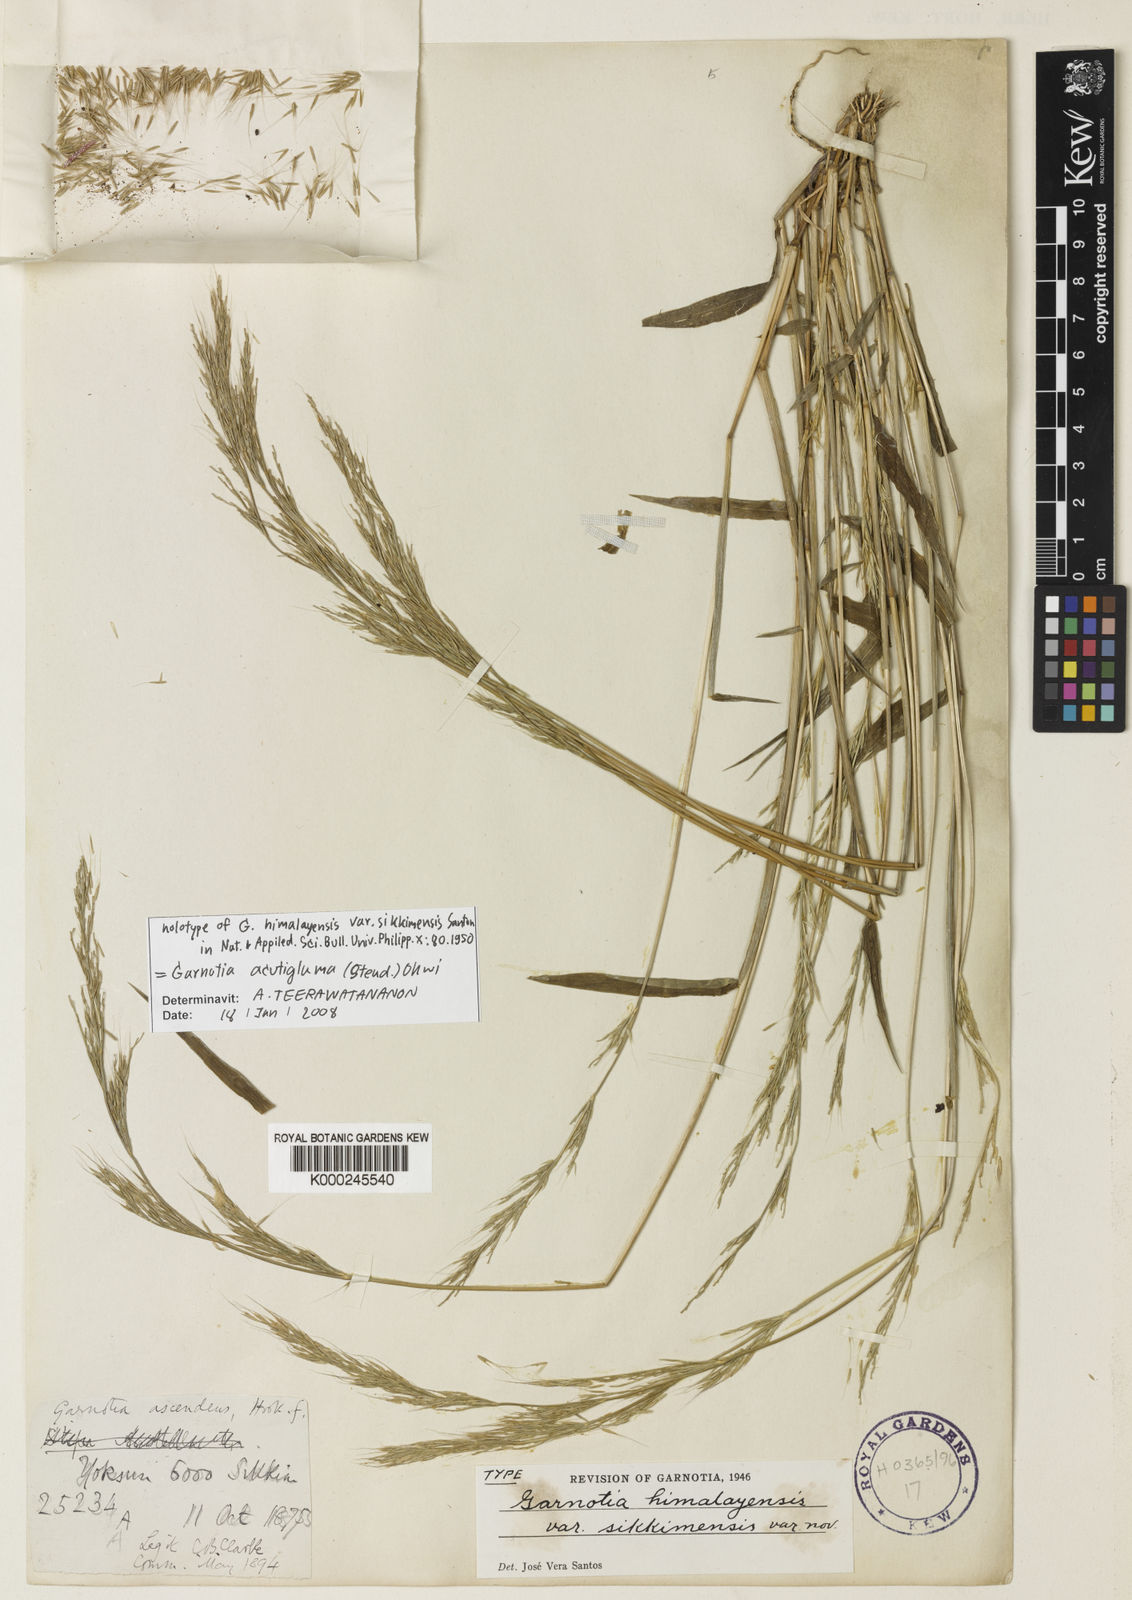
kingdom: Plantae
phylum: Tracheophyta
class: Liliopsida
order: Poales
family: Poaceae
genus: Garnotia
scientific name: Garnotia stricta
